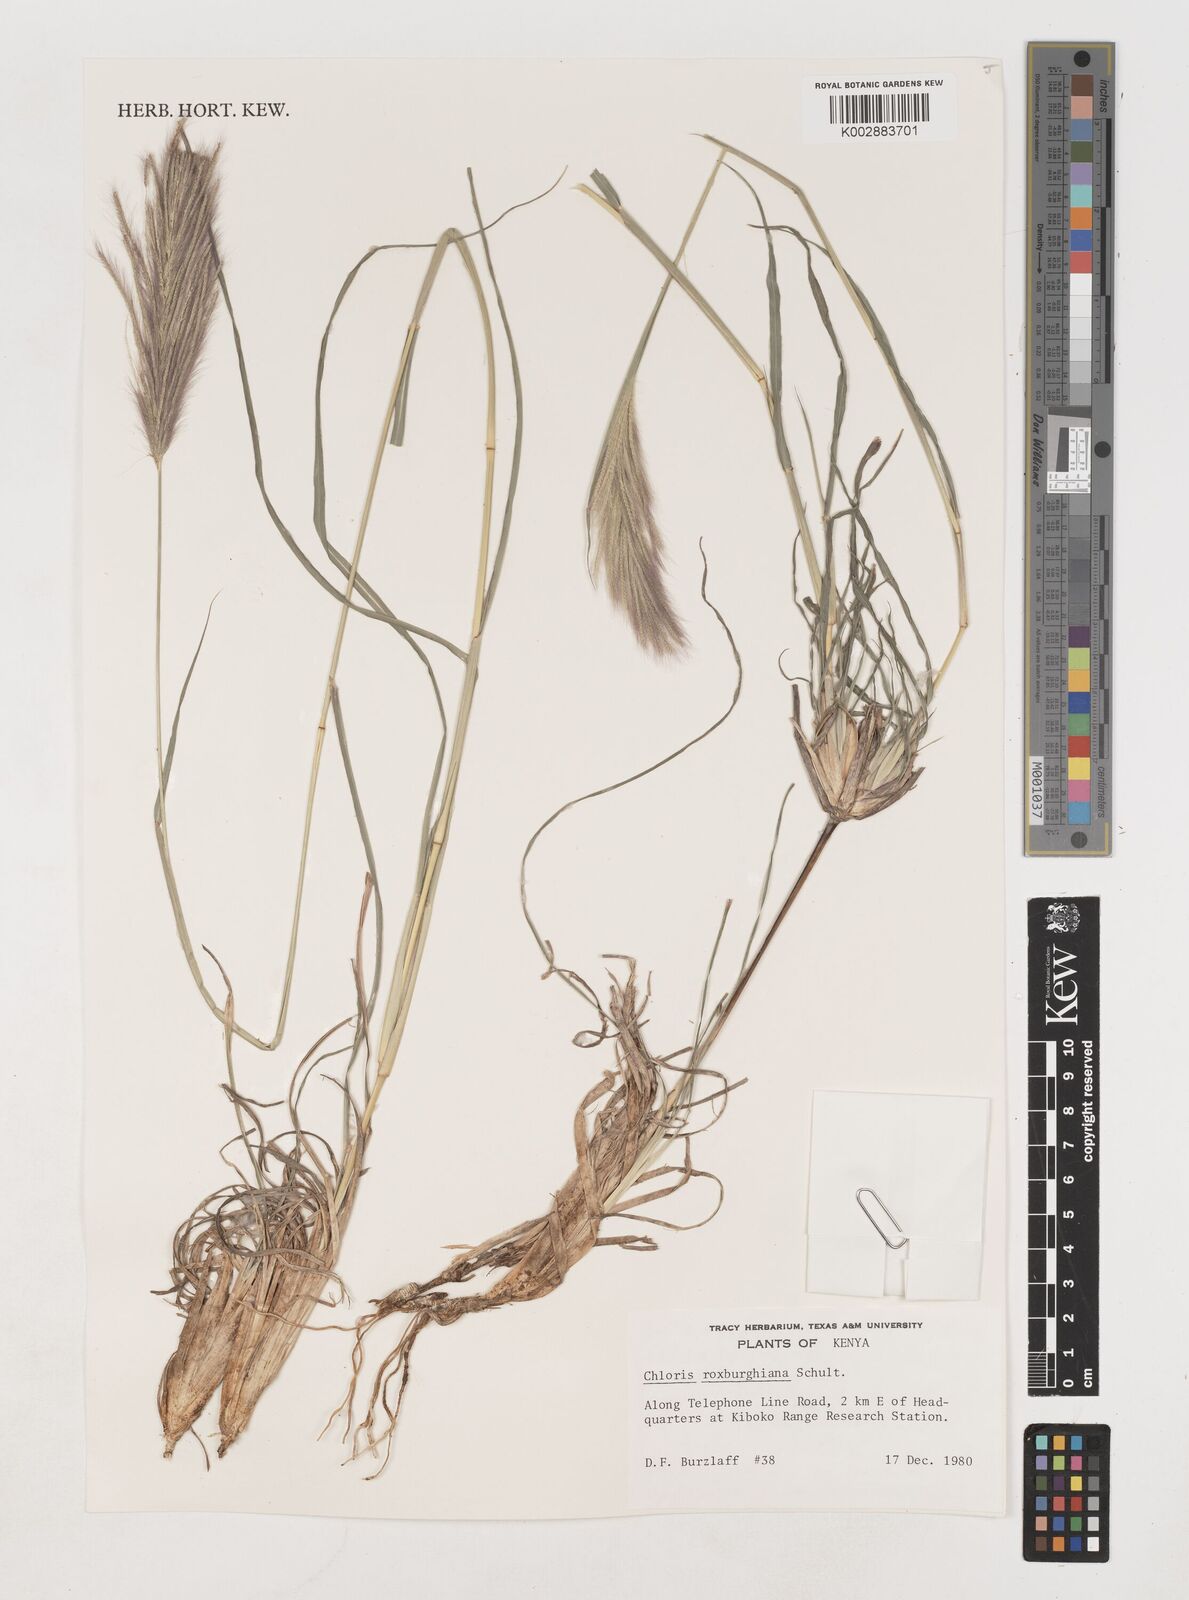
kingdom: Plantae
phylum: Tracheophyta
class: Liliopsida
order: Poales
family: Poaceae
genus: Tetrapogon
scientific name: Tetrapogon roxburghiana
